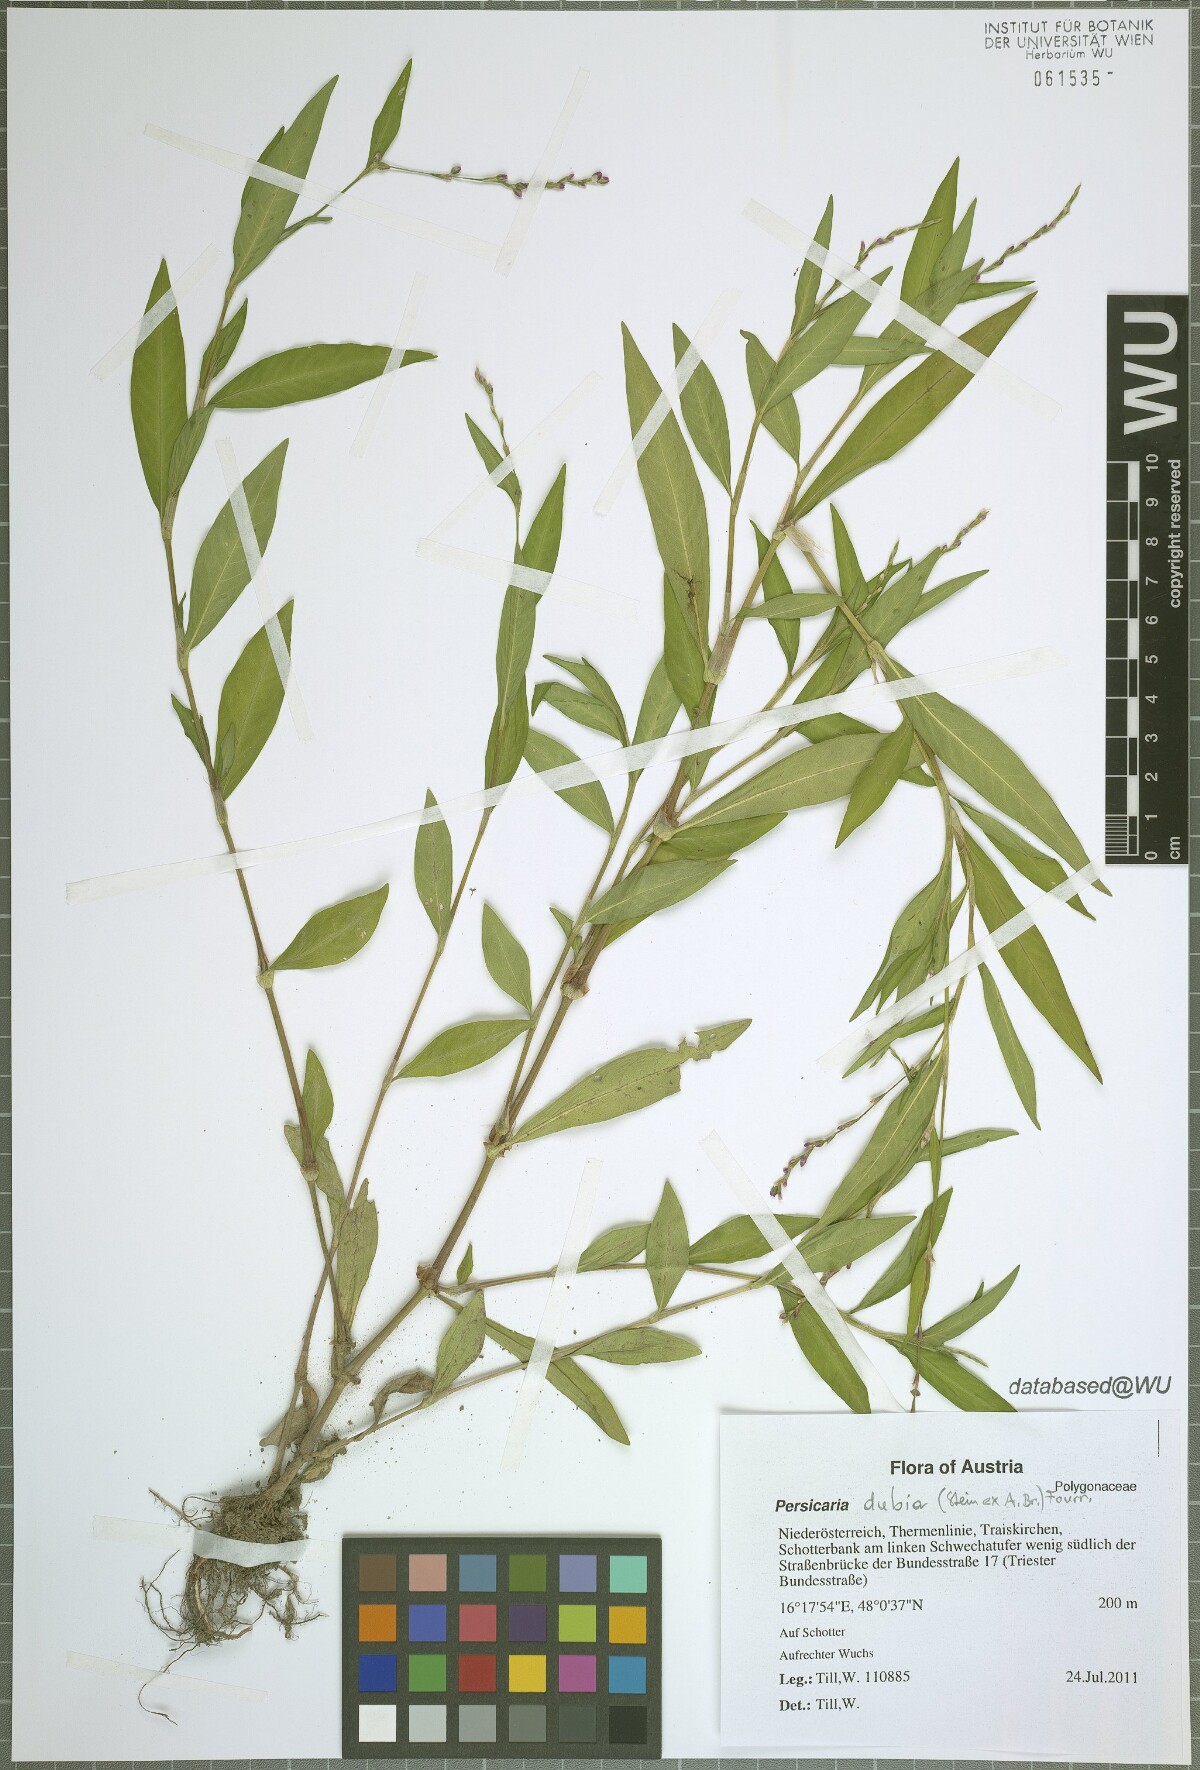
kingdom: Plantae
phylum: Tracheophyta
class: Magnoliopsida
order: Caryophyllales
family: Polygonaceae
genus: Persicaria
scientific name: Persicaria mitis
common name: Tasteless water-pepper
